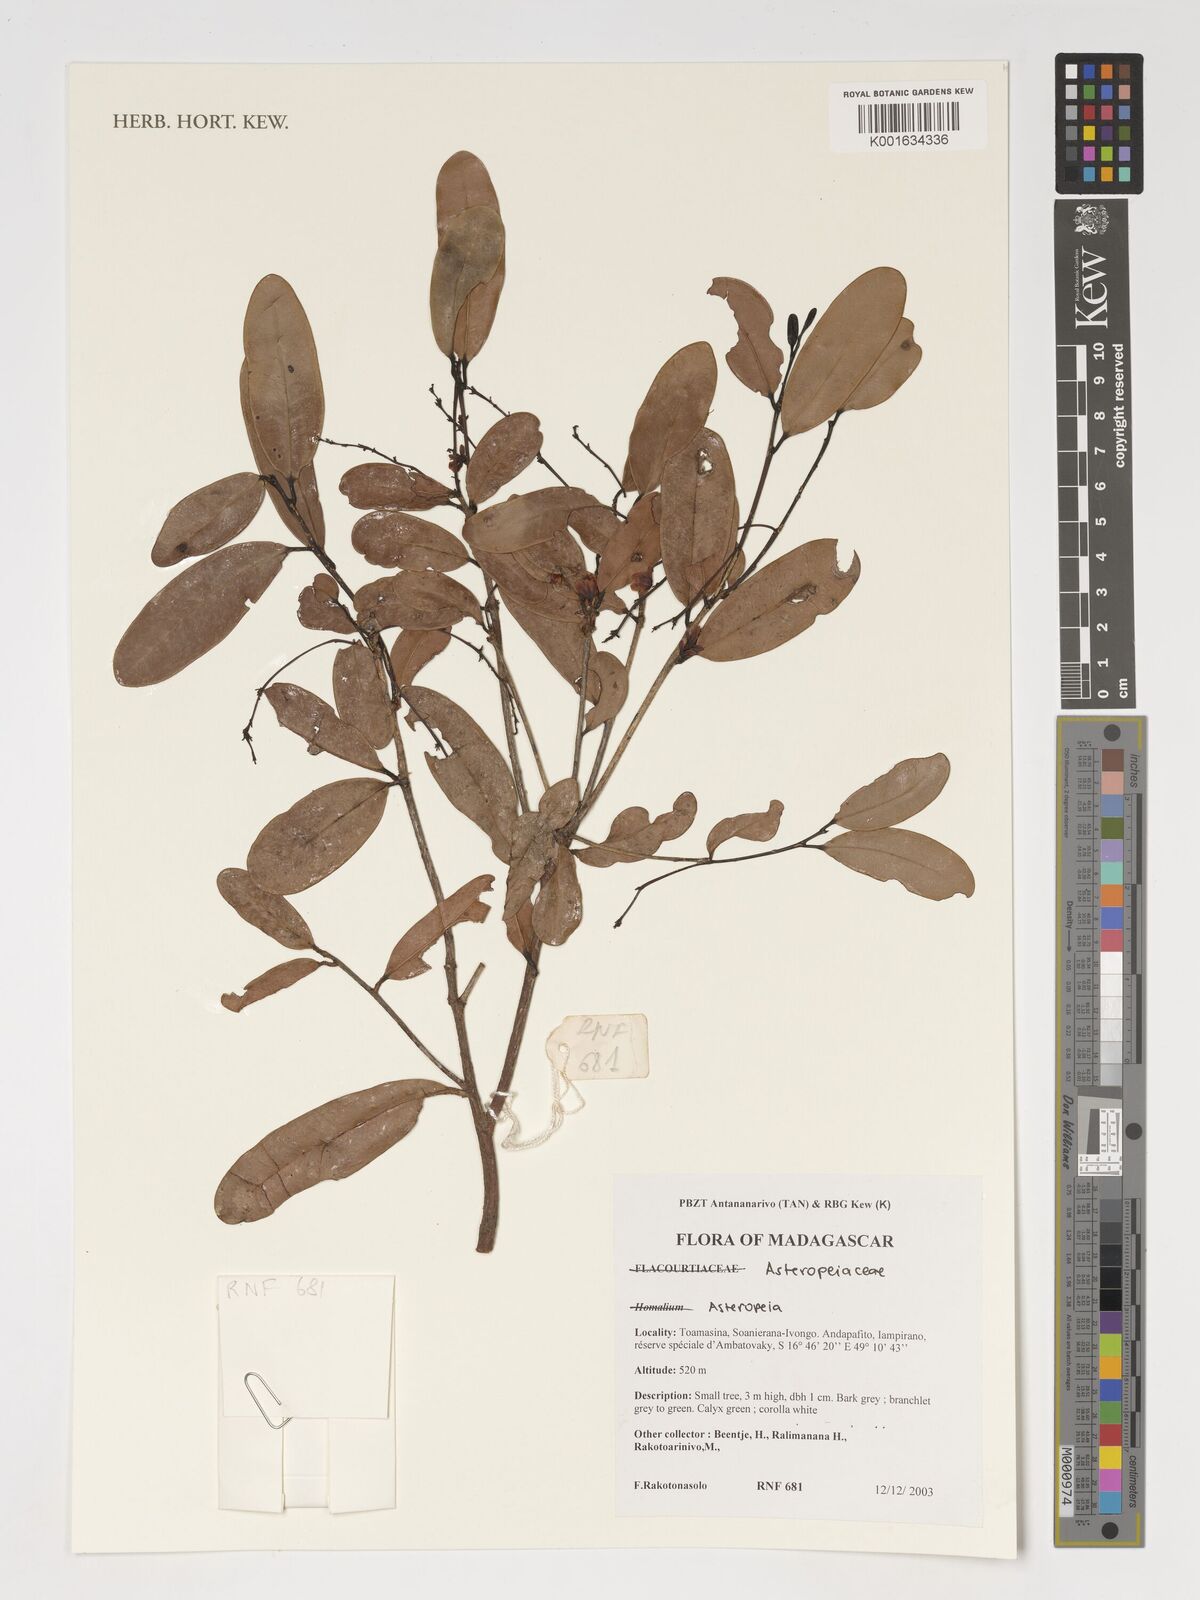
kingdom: Plantae
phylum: Tracheophyta
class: Magnoliopsida
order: Caryophyllales
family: Asteropeiaceae
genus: Asteropeia
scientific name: Asteropeia
